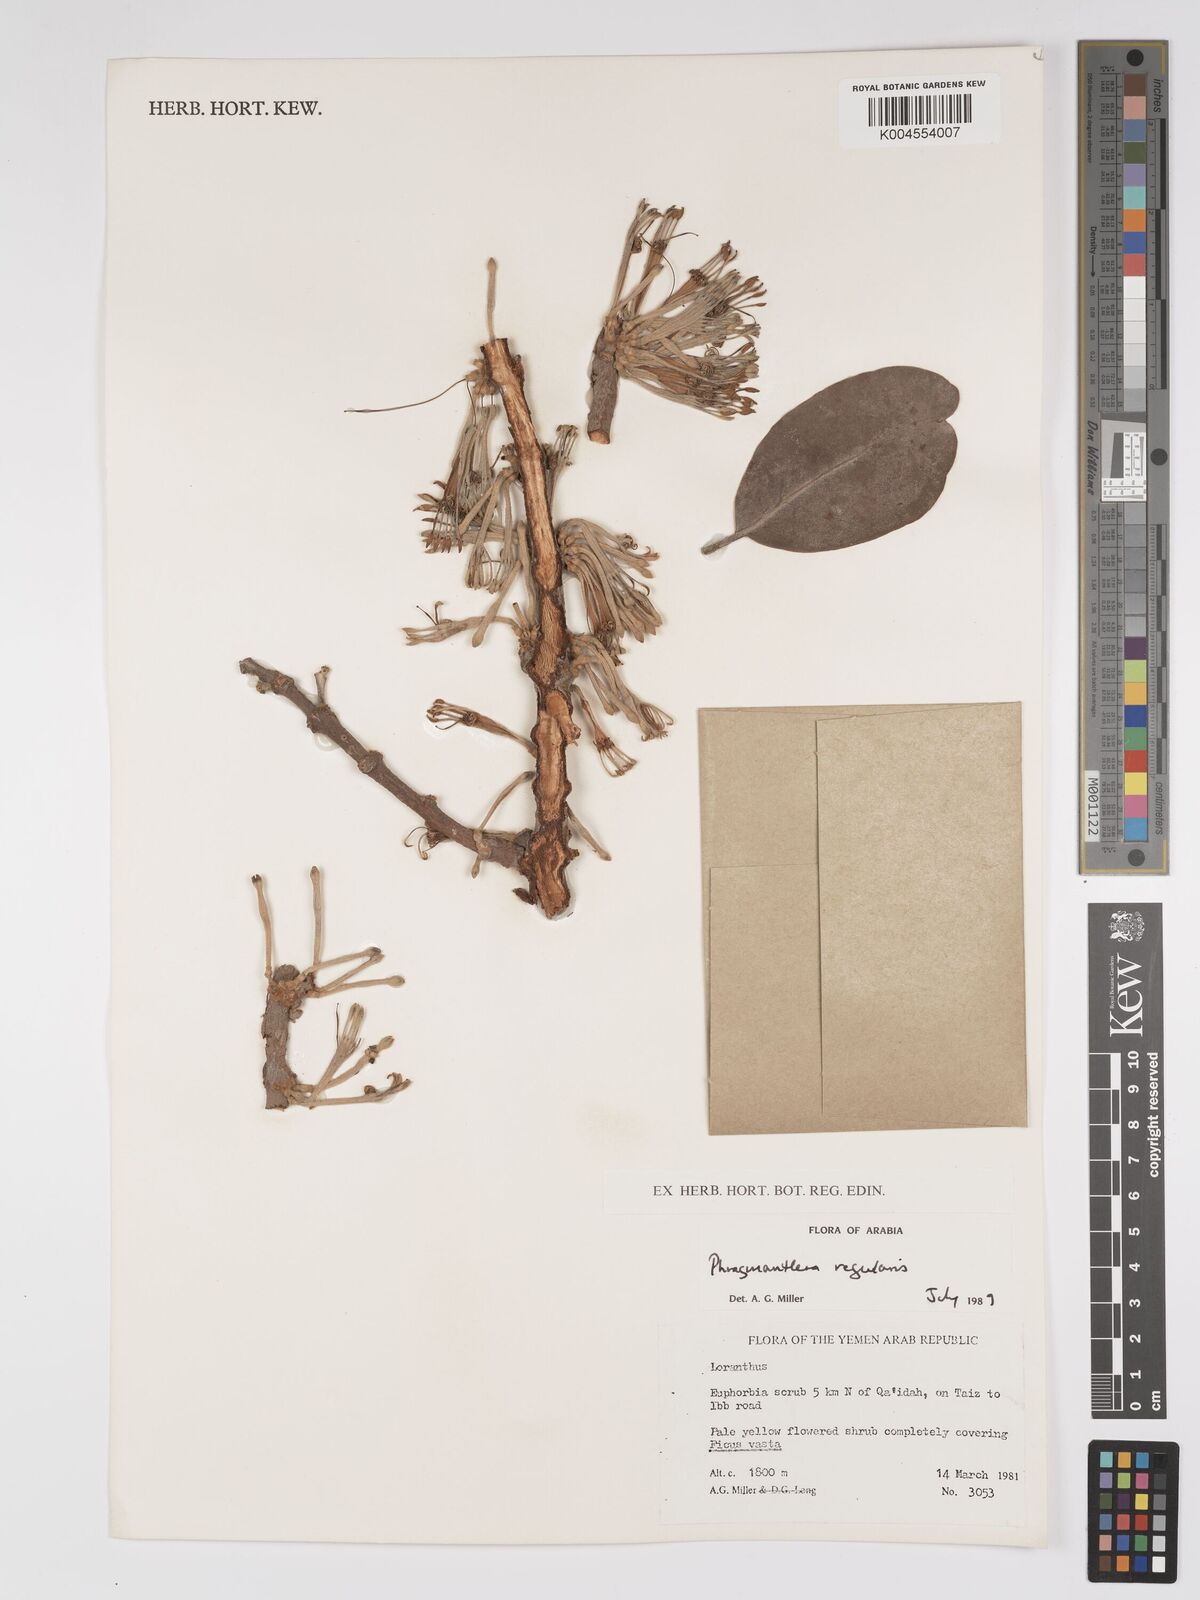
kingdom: Plantae
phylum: Tracheophyta
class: Magnoliopsida
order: Santalales
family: Loranthaceae
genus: Phragmanthera
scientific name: Phragmanthera regularis
